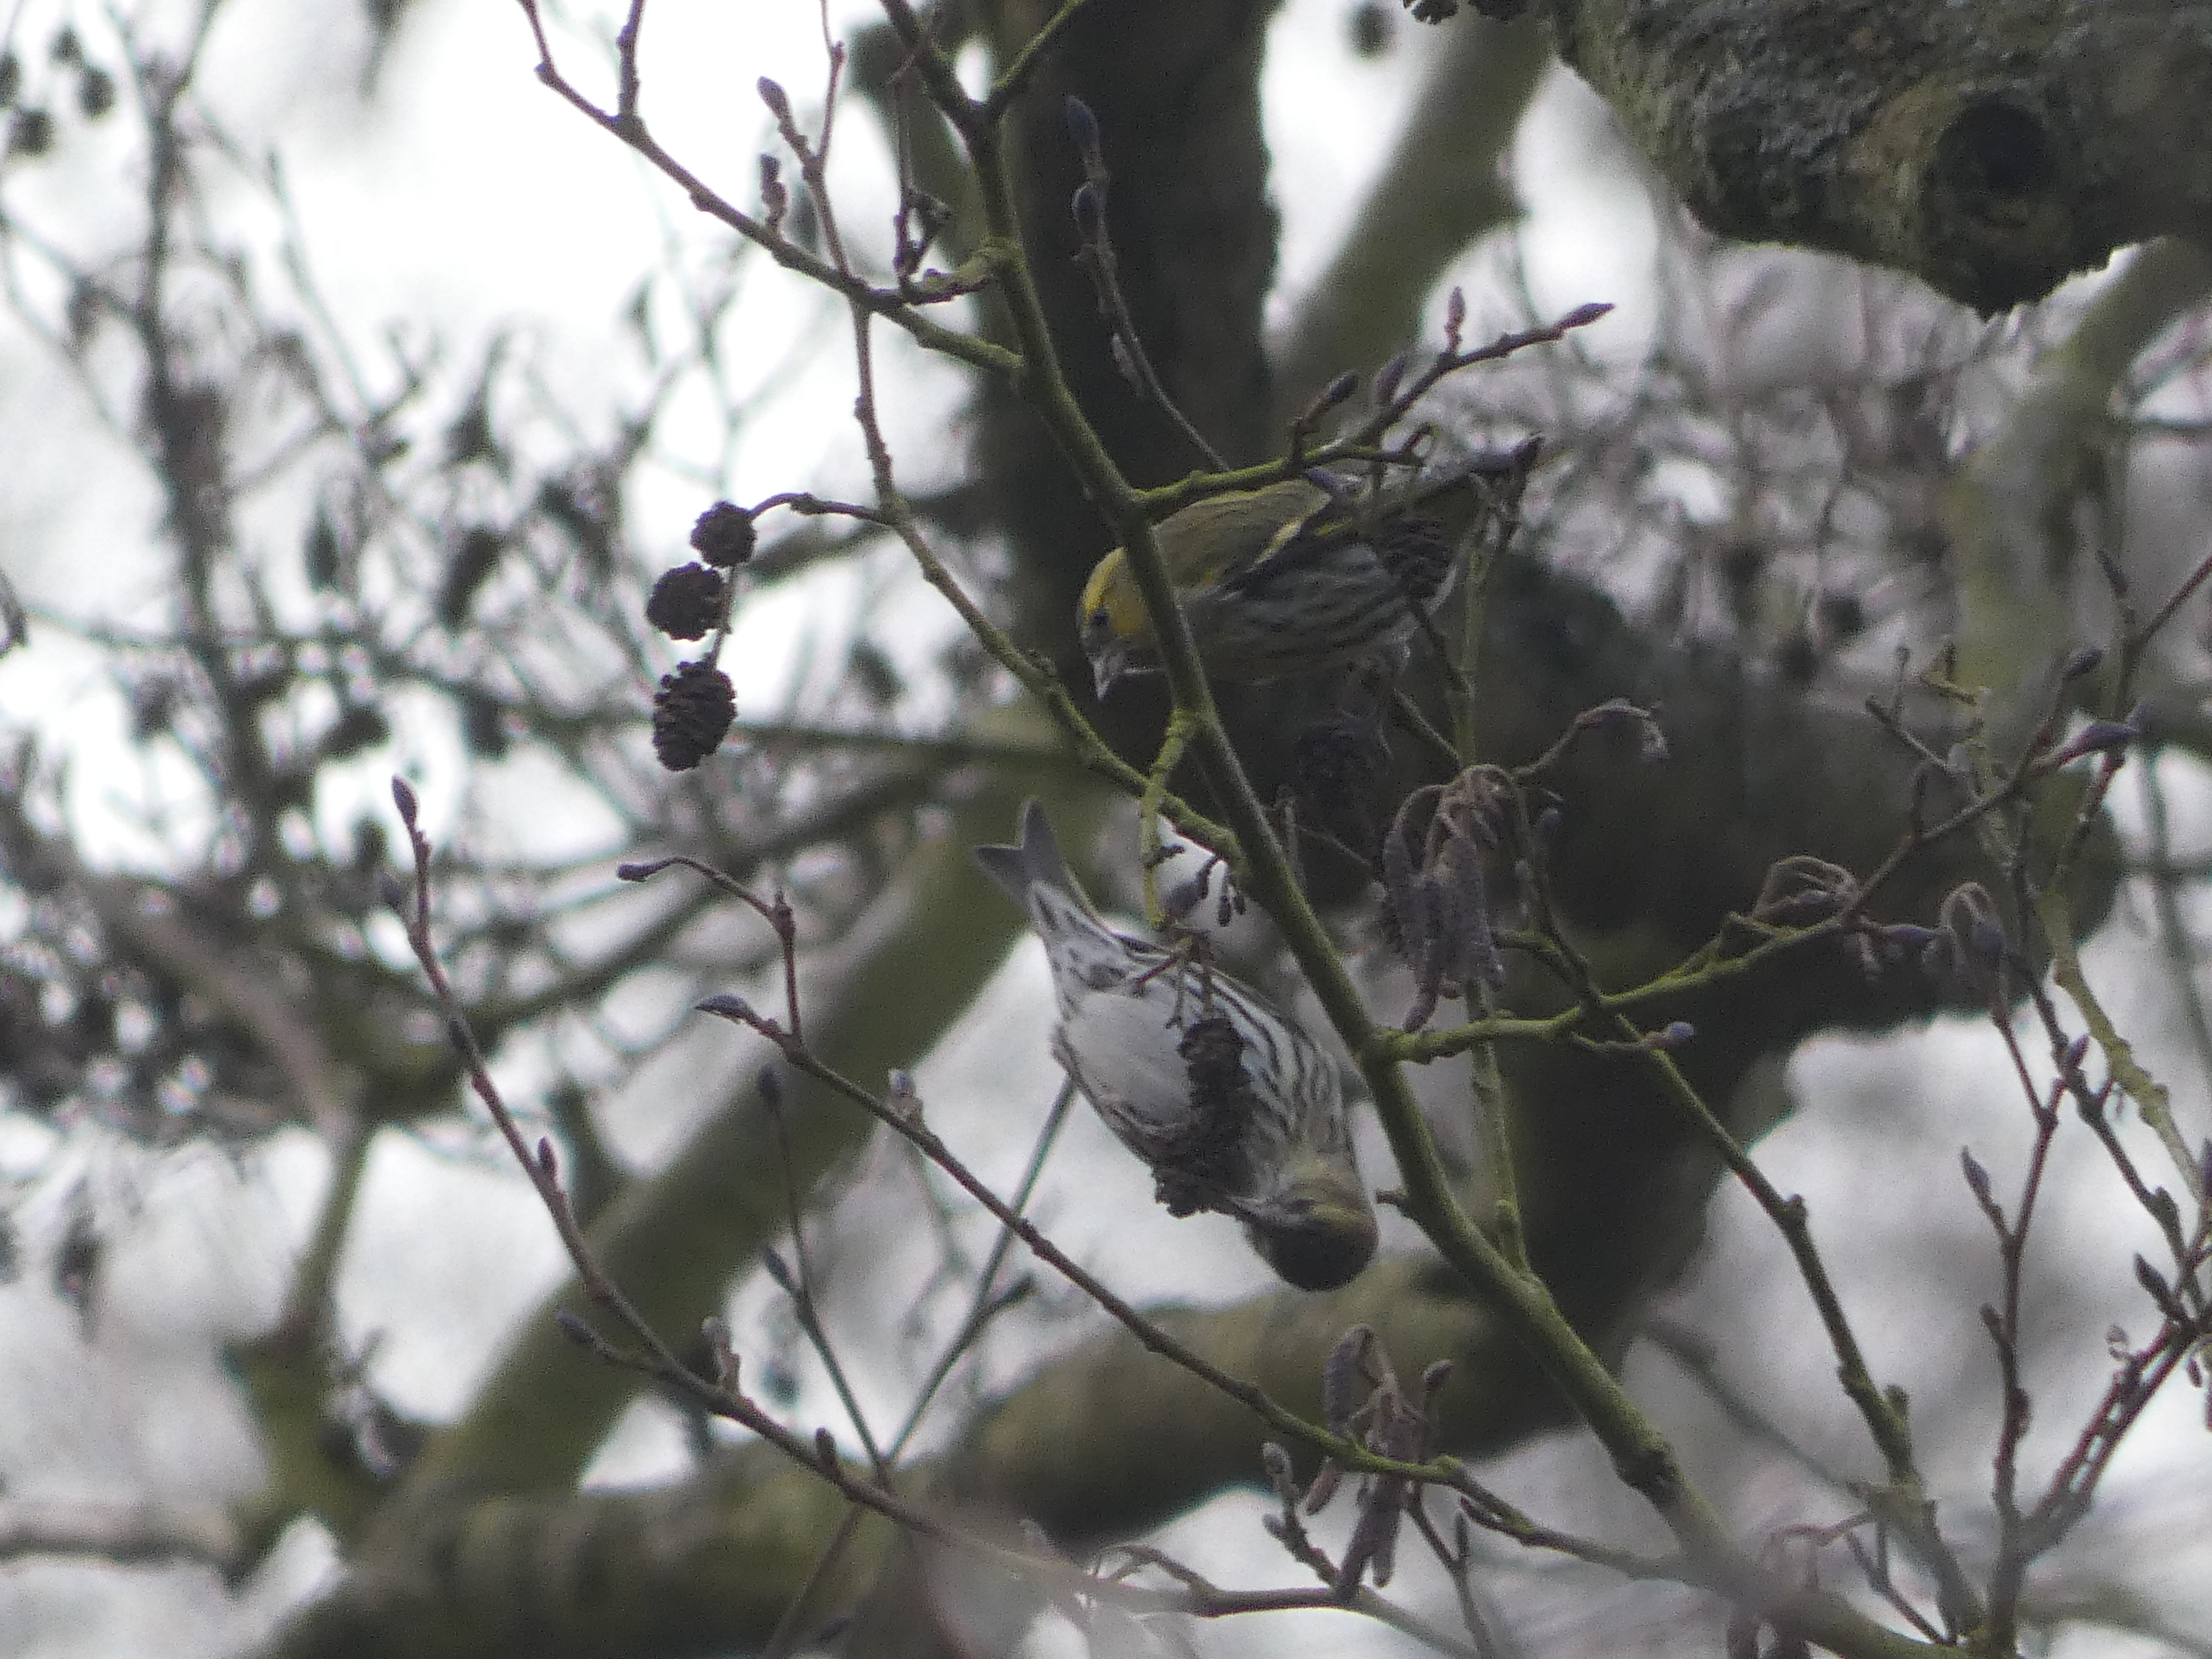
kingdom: Animalia
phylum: Chordata
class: Aves
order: Passeriformes
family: Fringillidae
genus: Spinus
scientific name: Spinus spinus
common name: Grønsisken
